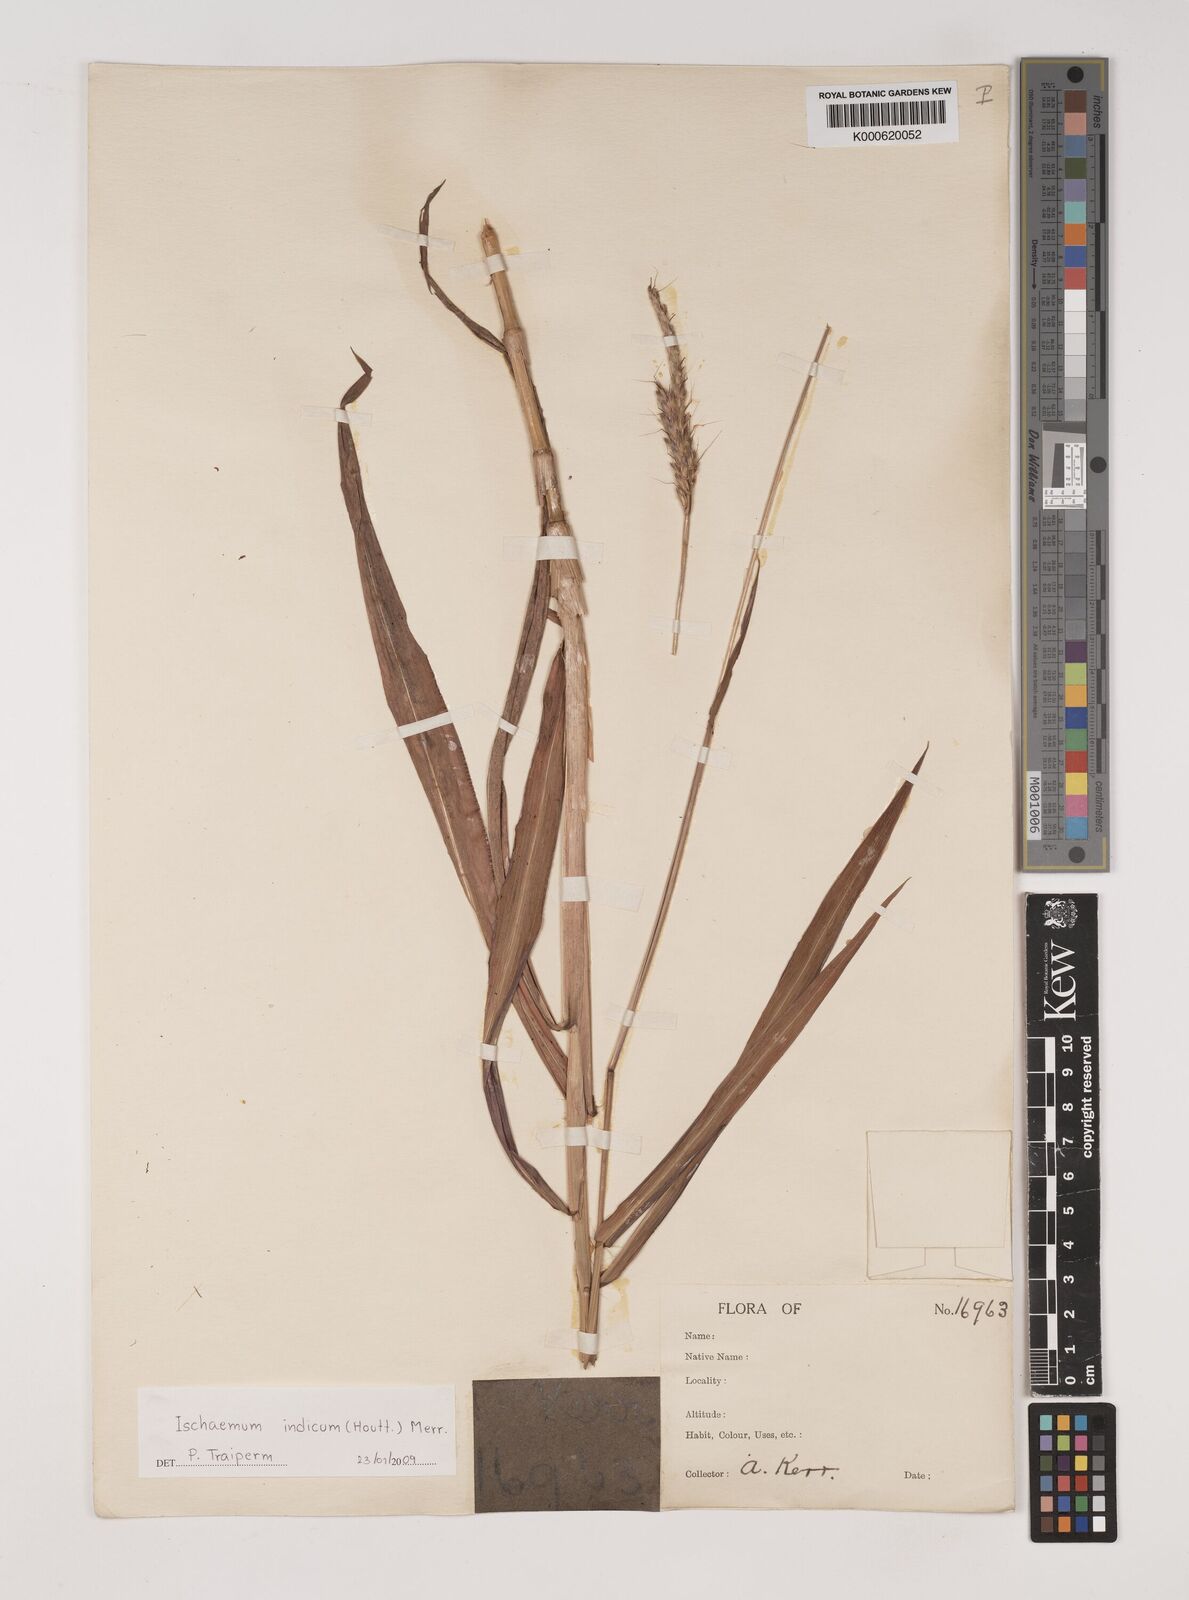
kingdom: Plantae
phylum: Tracheophyta
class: Liliopsida
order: Poales
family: Poaceae
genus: Polytrias
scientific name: Polytrias indica
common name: Indian murainagrass
